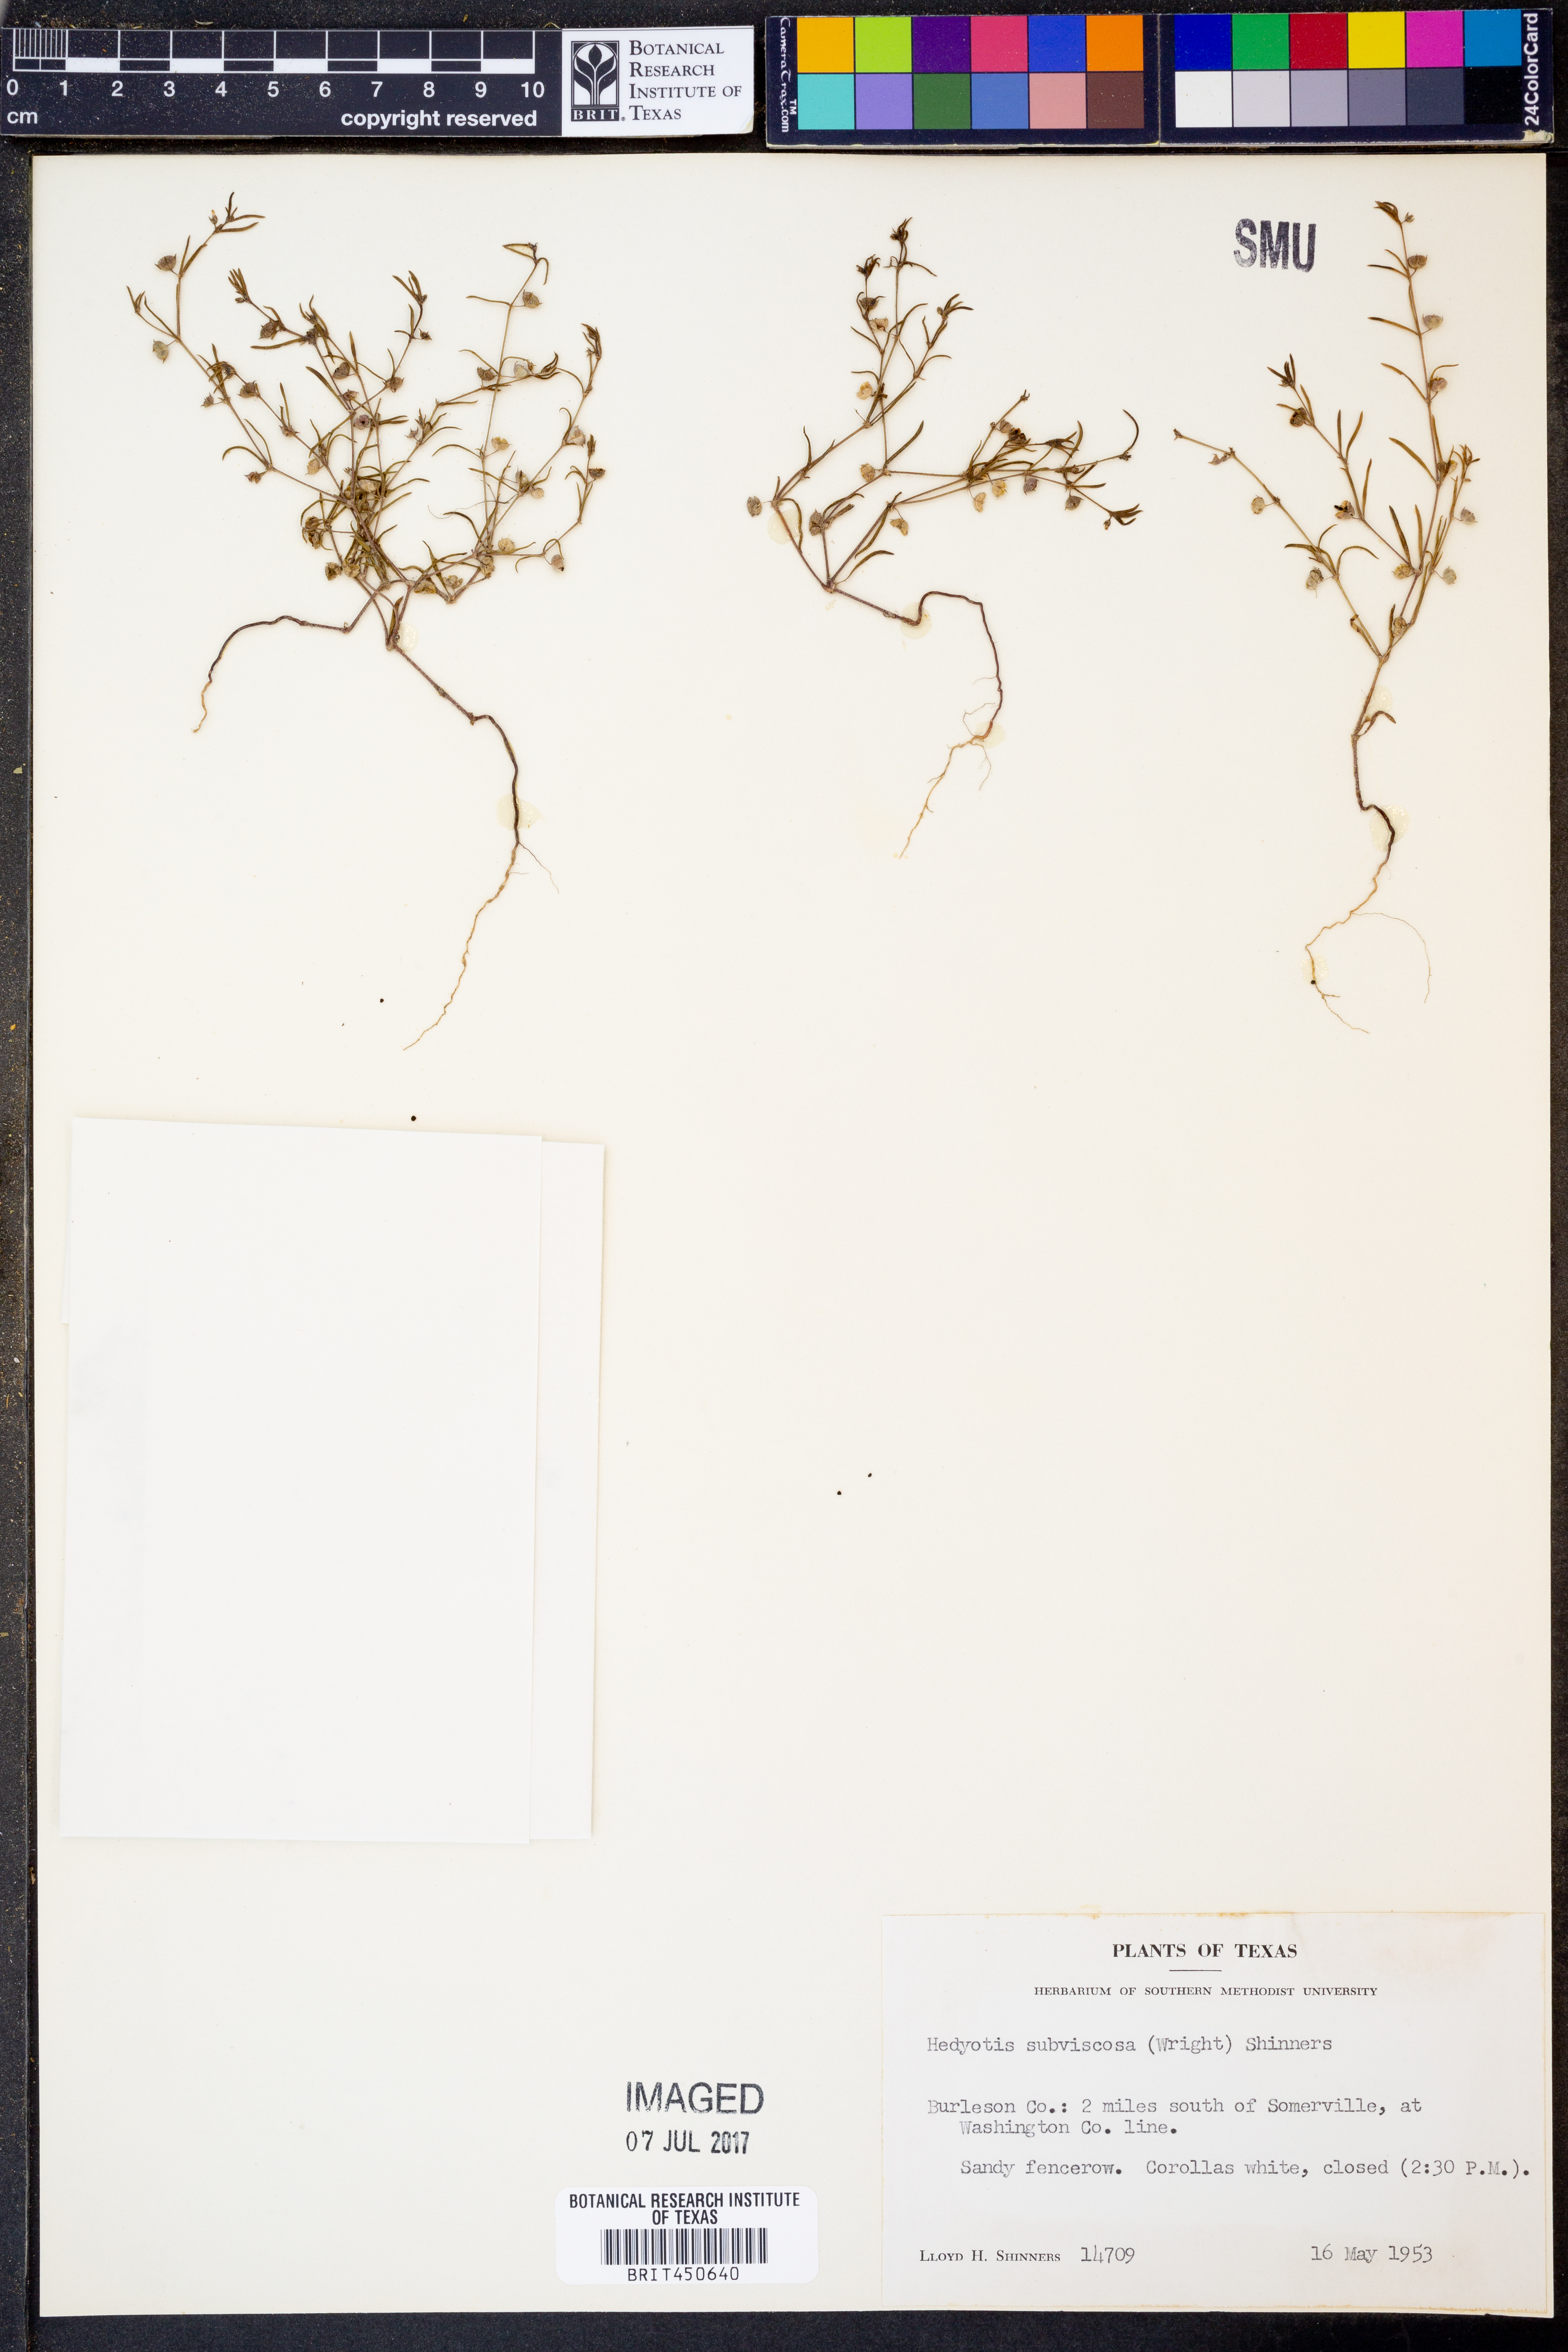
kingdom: Plantae
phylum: Tracheophyta
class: Magnoliopsida
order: Gentianales
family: Rubiaceae
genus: Houstonia
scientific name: Houstonia subviscosa
